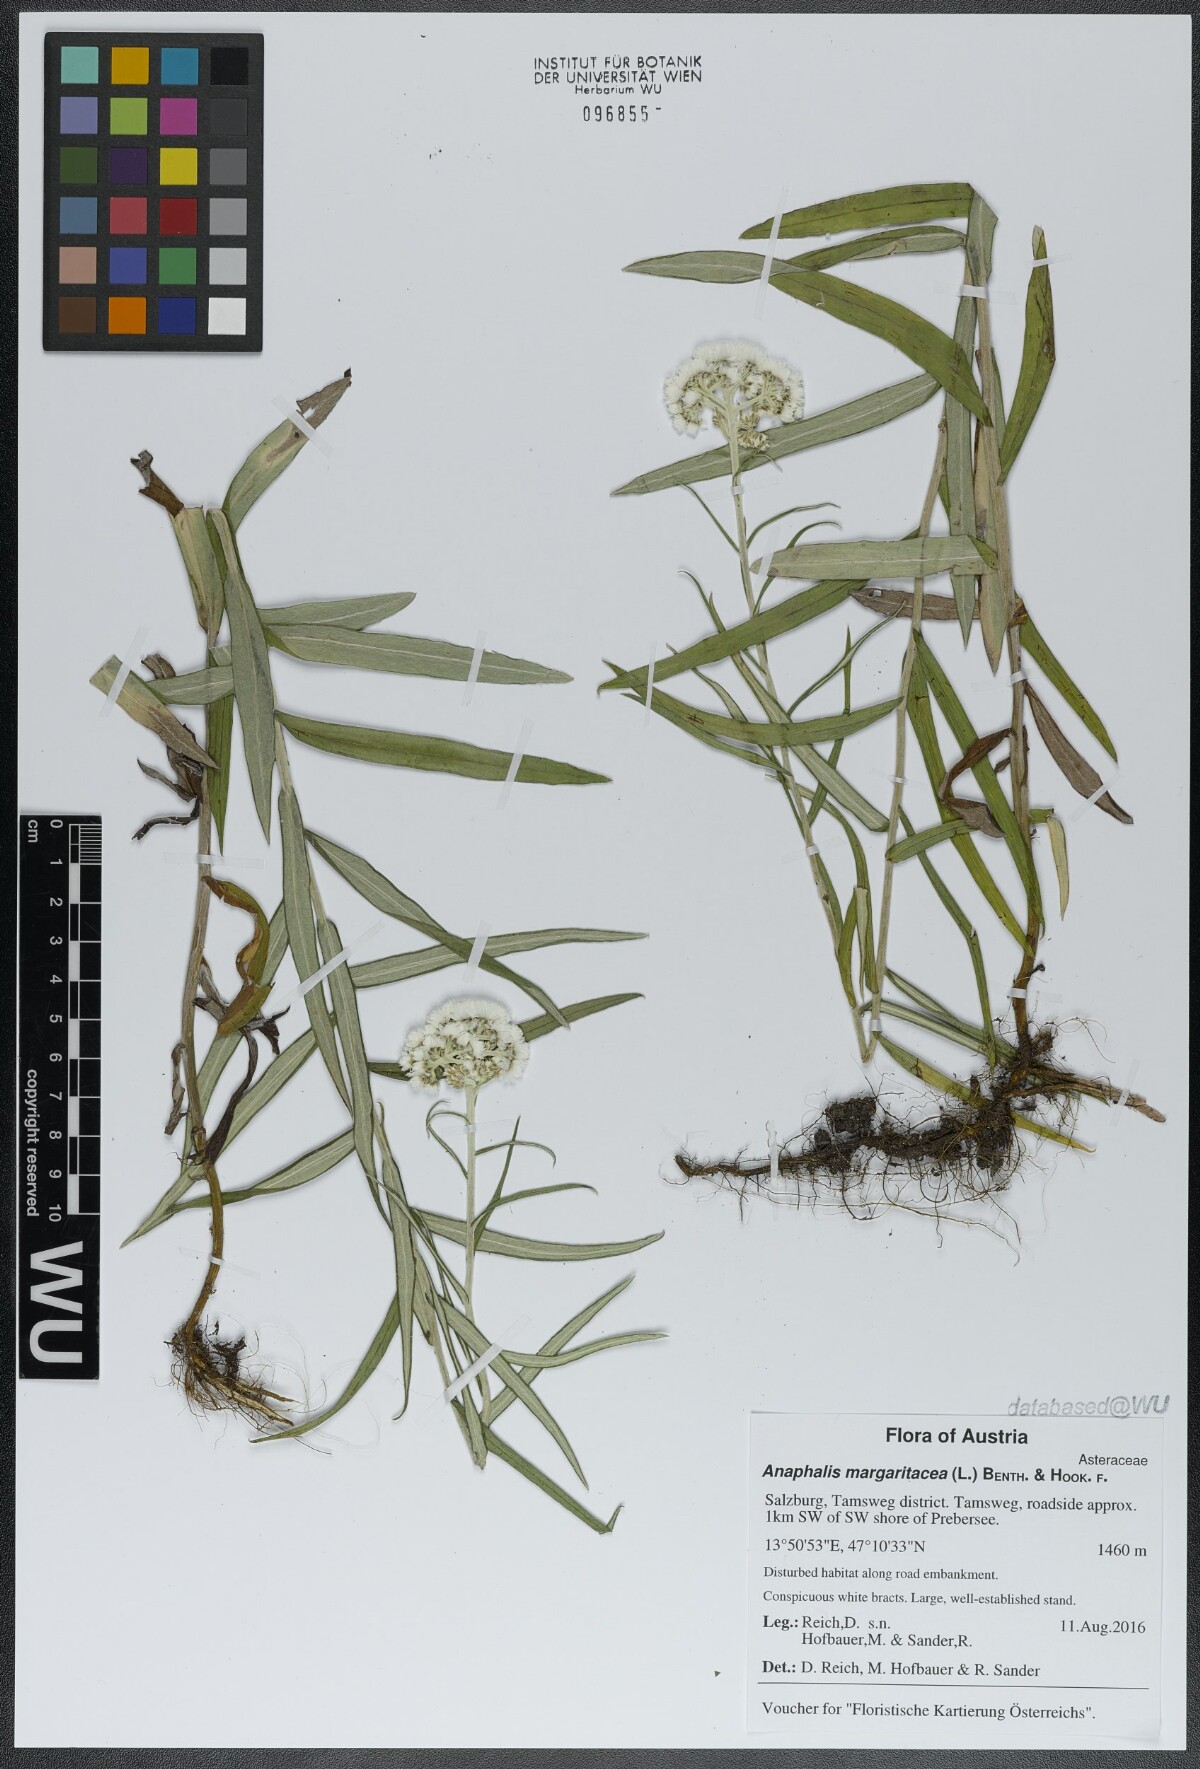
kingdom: Plantae
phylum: Tracheophyta
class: Magnoliopsida
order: Asterales
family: Asteraceae
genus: Anaphalis
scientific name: Anaphalis margaritacea
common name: Pearly everlasting
